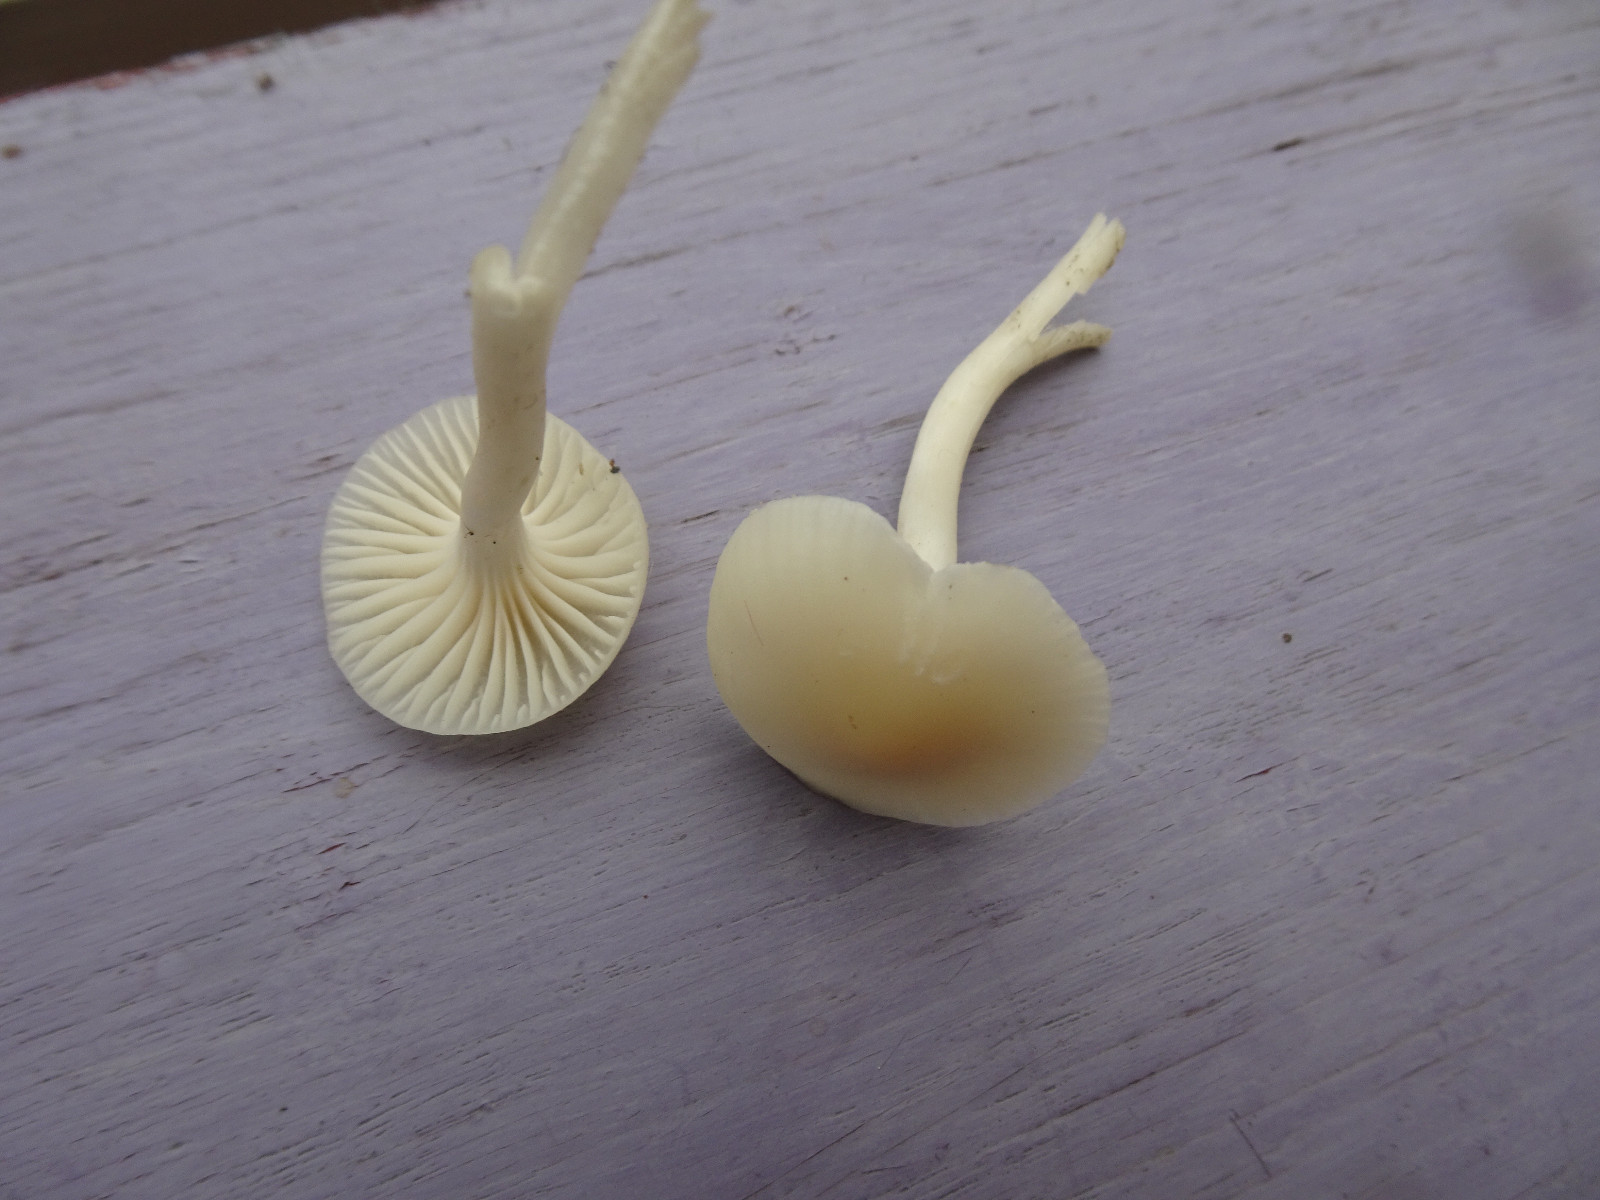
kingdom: Fungi
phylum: Basidiomycota
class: Agaricomycetes
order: Agaricales
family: Hygrophoraceae
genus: Cuphophyllus
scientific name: Cuphophyllus
